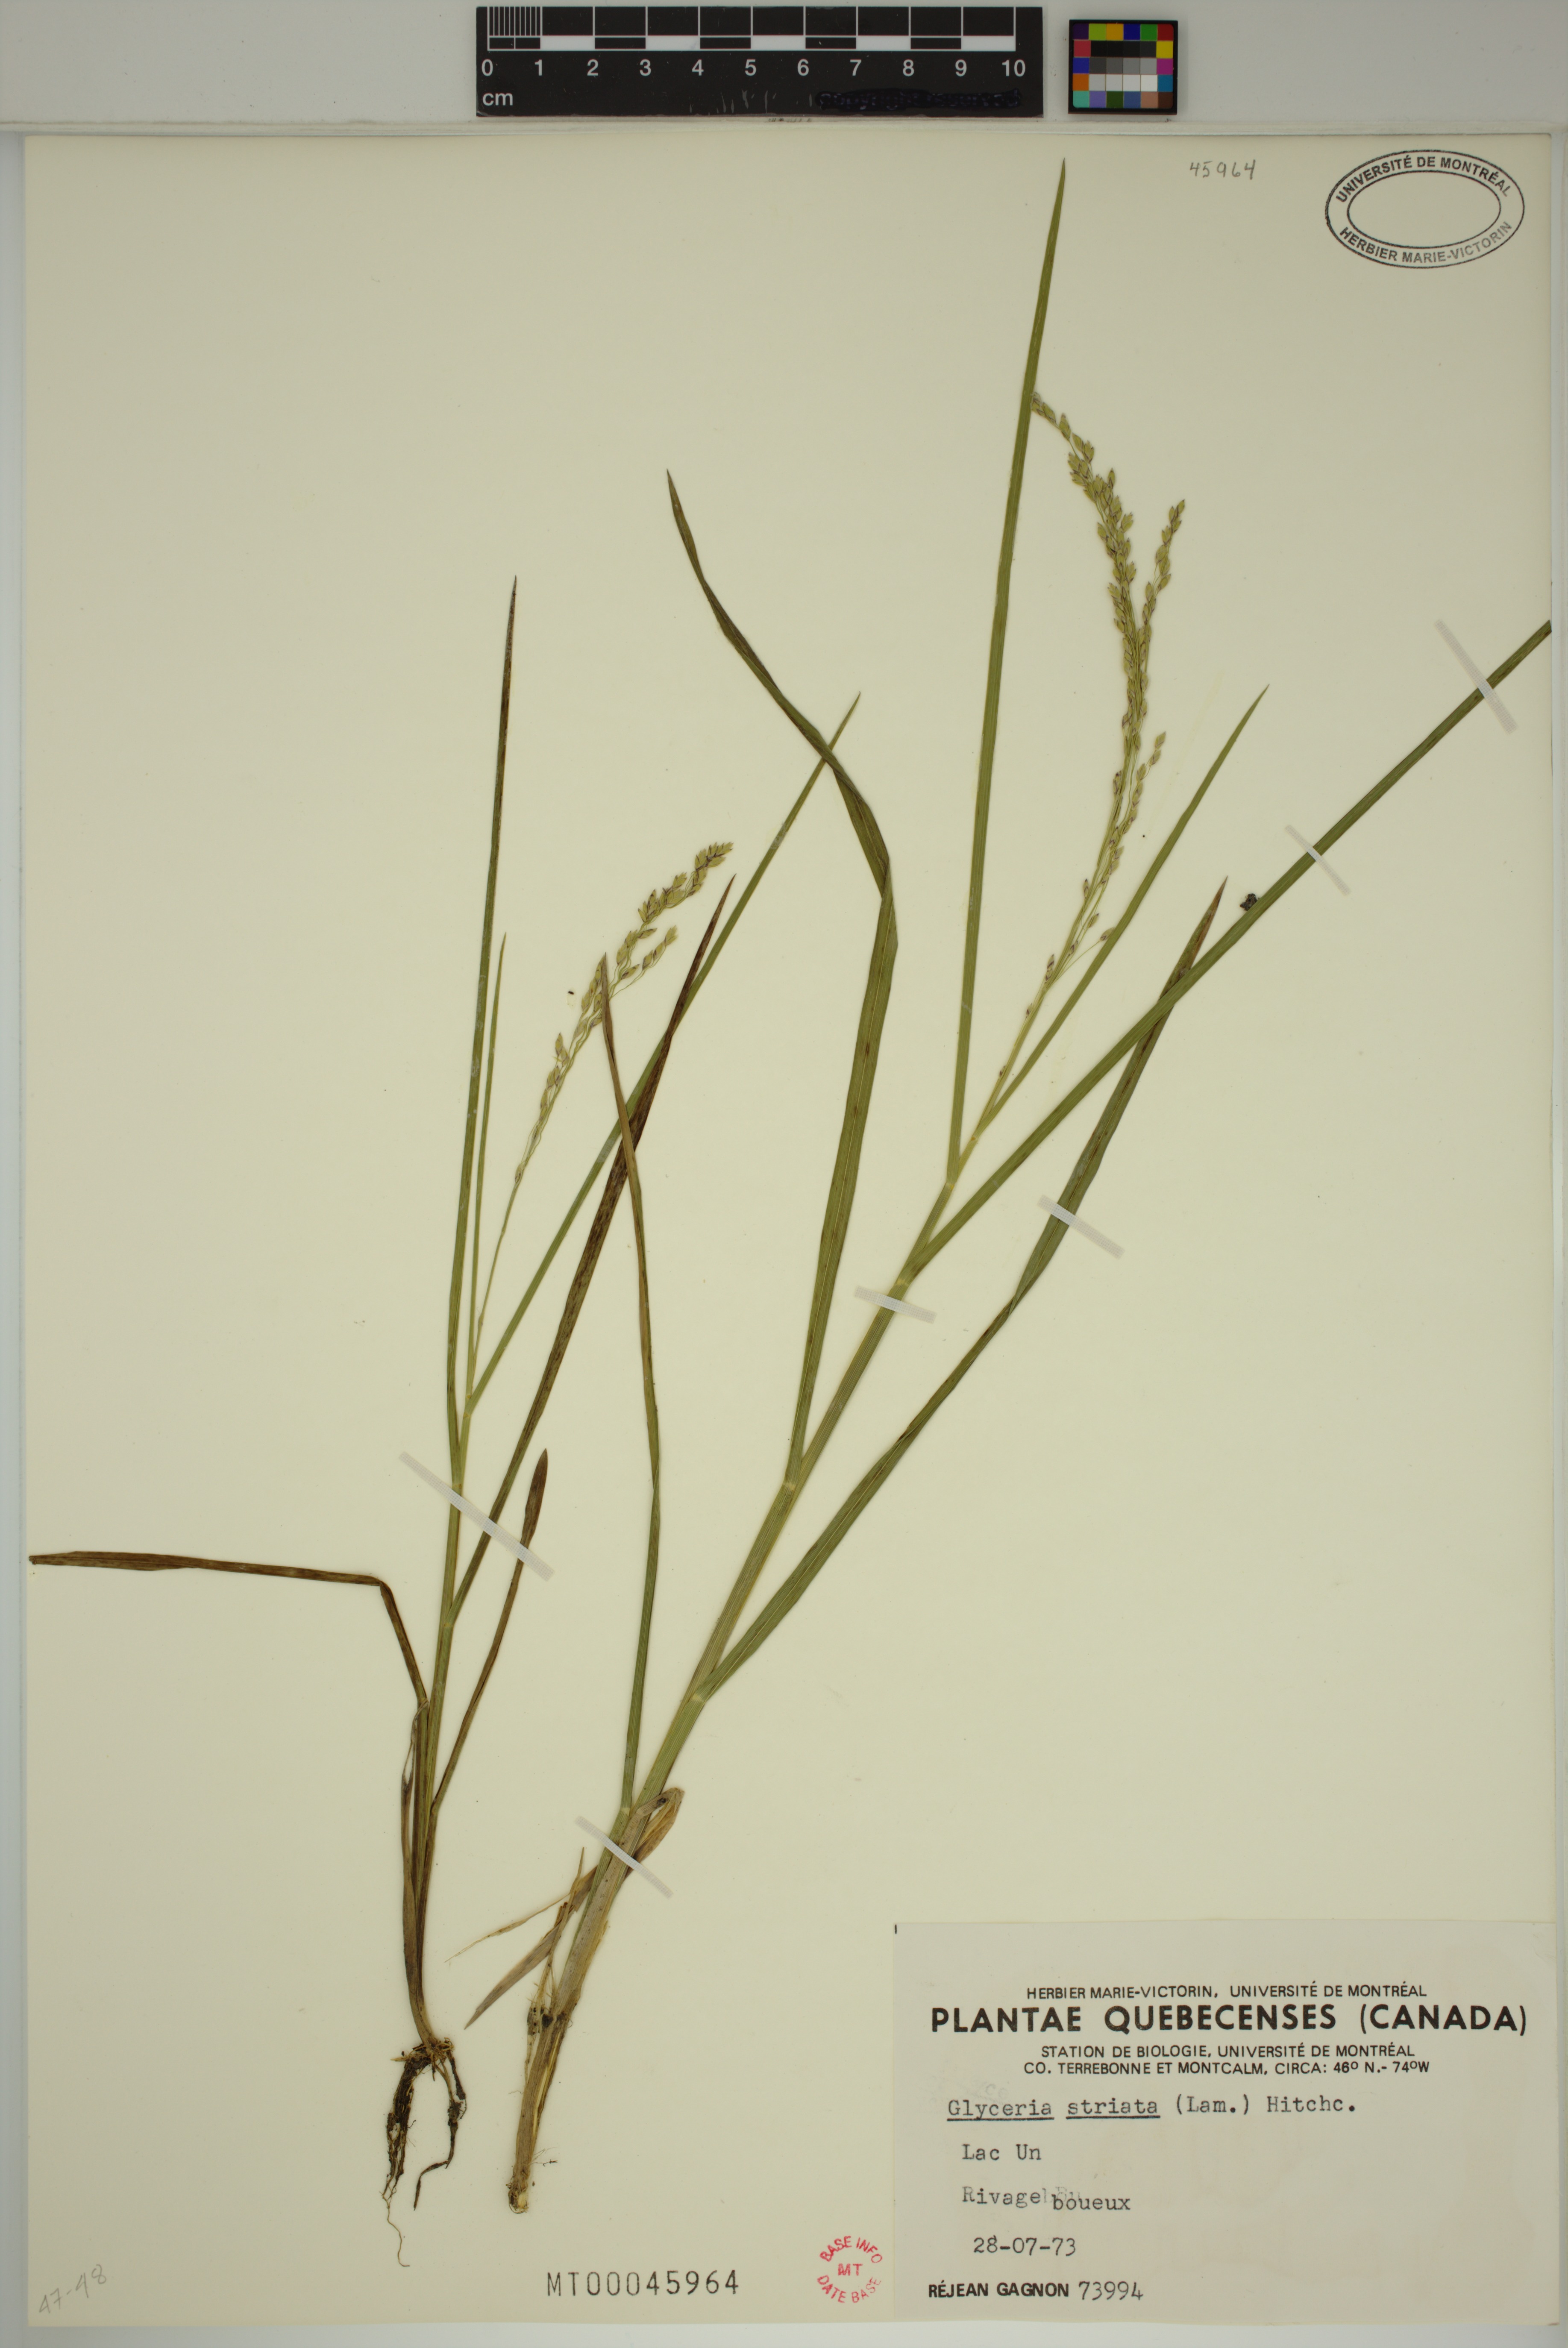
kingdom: Plantae
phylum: Tracheophyta
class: Liliopsida
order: Poales
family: Poaceae
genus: Glyceria
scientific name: Glyceria canadensis
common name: Canada mannagrass
